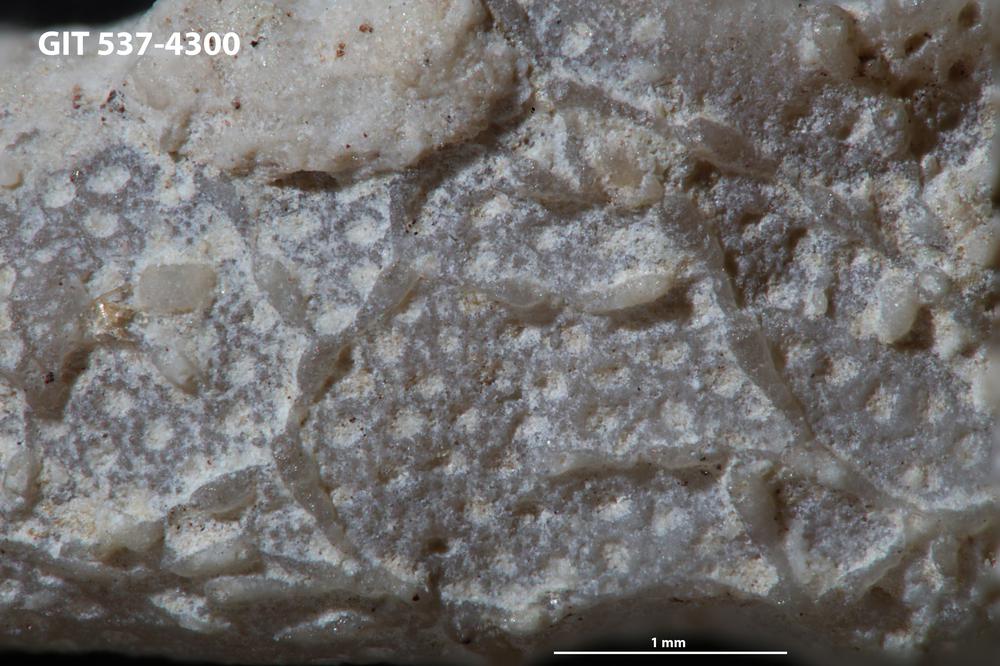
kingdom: Animalia
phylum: Bryozoa
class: Stenolaemata
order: Cyclostomatida
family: Corynotrypidae
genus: Corynotrypa
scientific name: Corynotrypa
